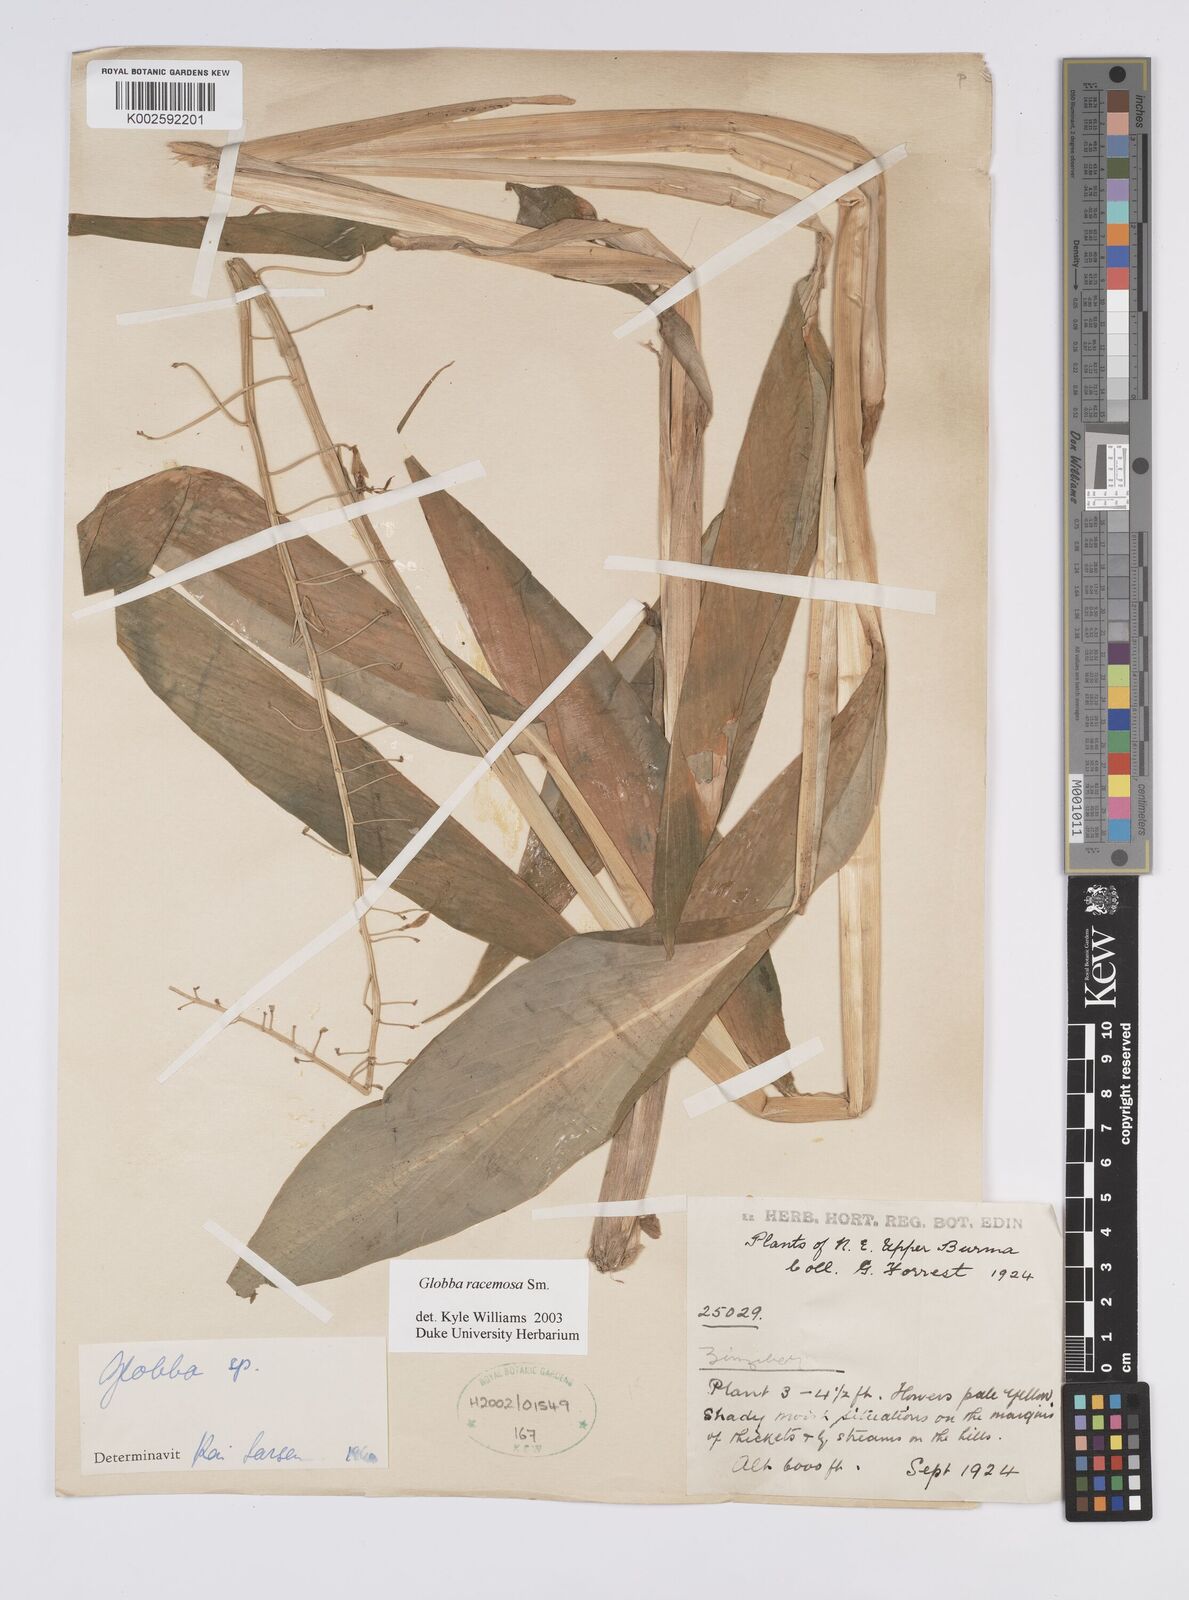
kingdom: Plantae
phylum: Tracheophyta
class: Liliopsida
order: Zingiberales
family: Zingiberaceae
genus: Globba
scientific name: Globba racemosa
